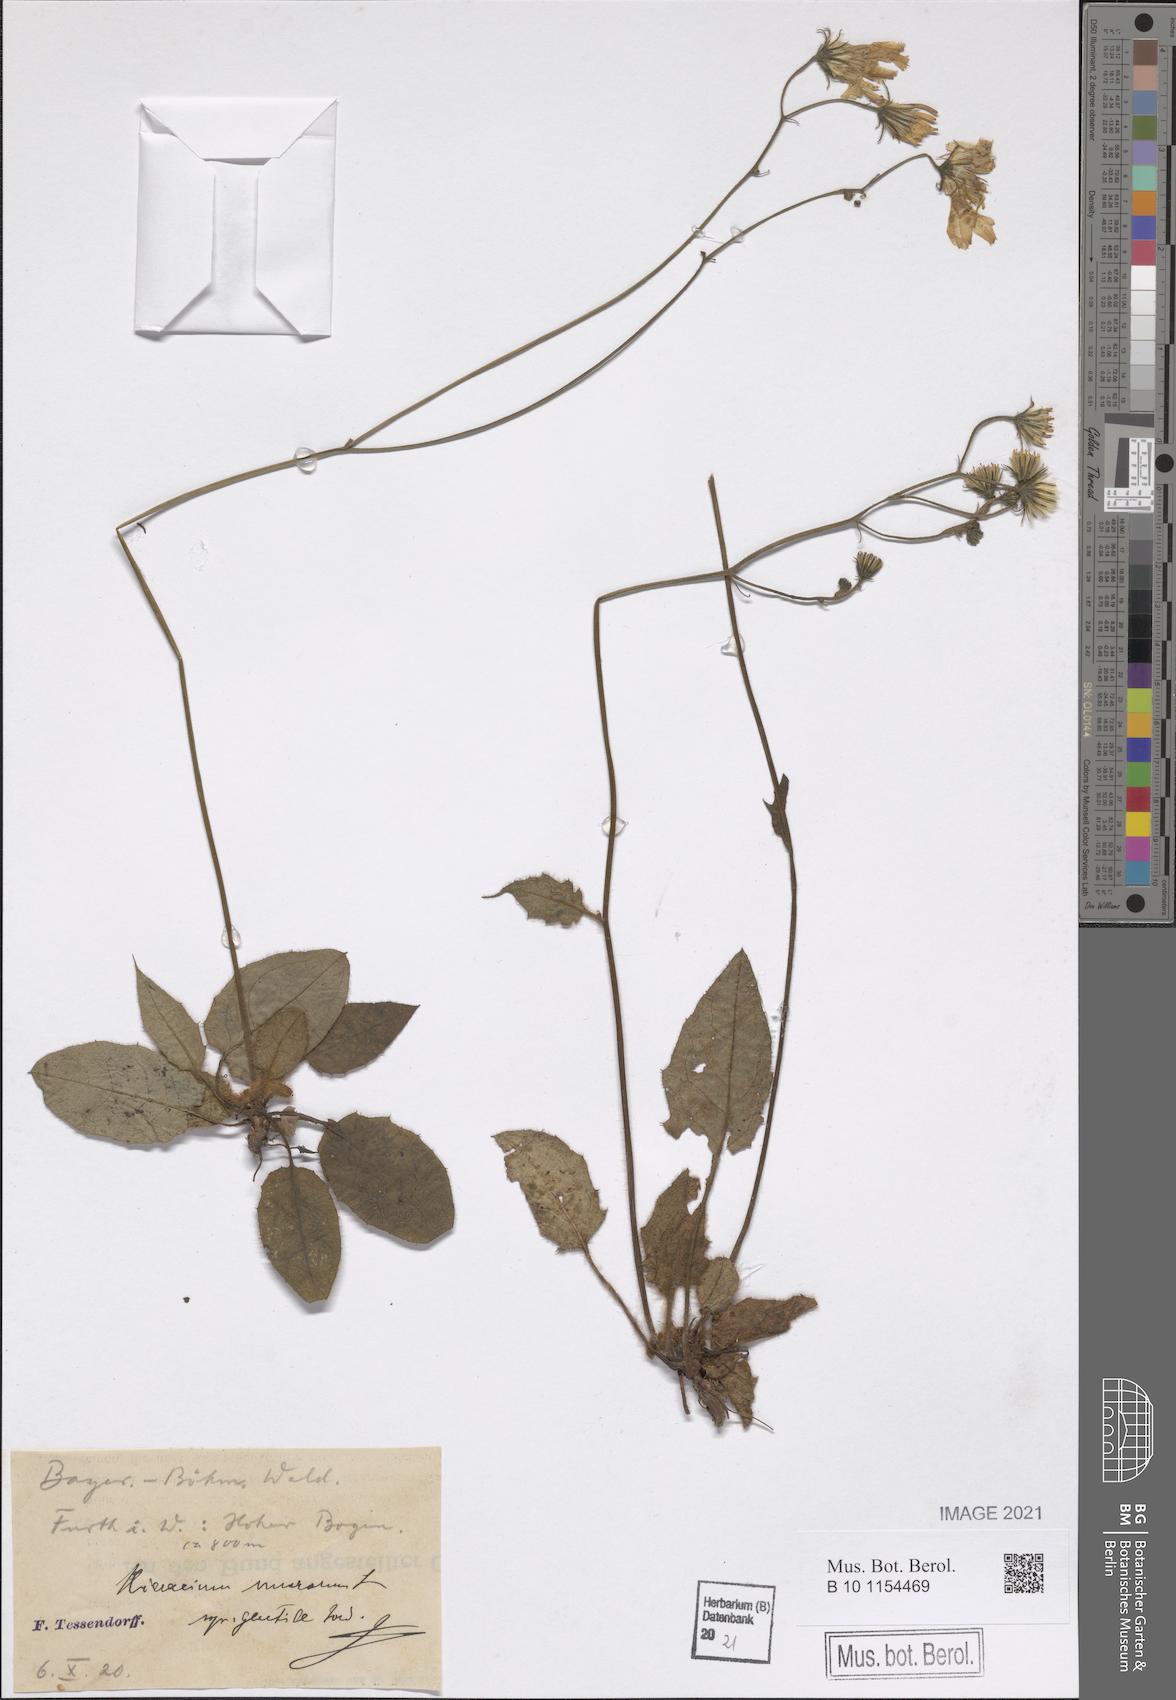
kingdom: Plantae
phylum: Tracheophyta
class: Magnoliopsida
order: Asterales
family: Asteraceae
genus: Hieracium
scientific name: Hieracium murorum
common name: Wall hawkweed
